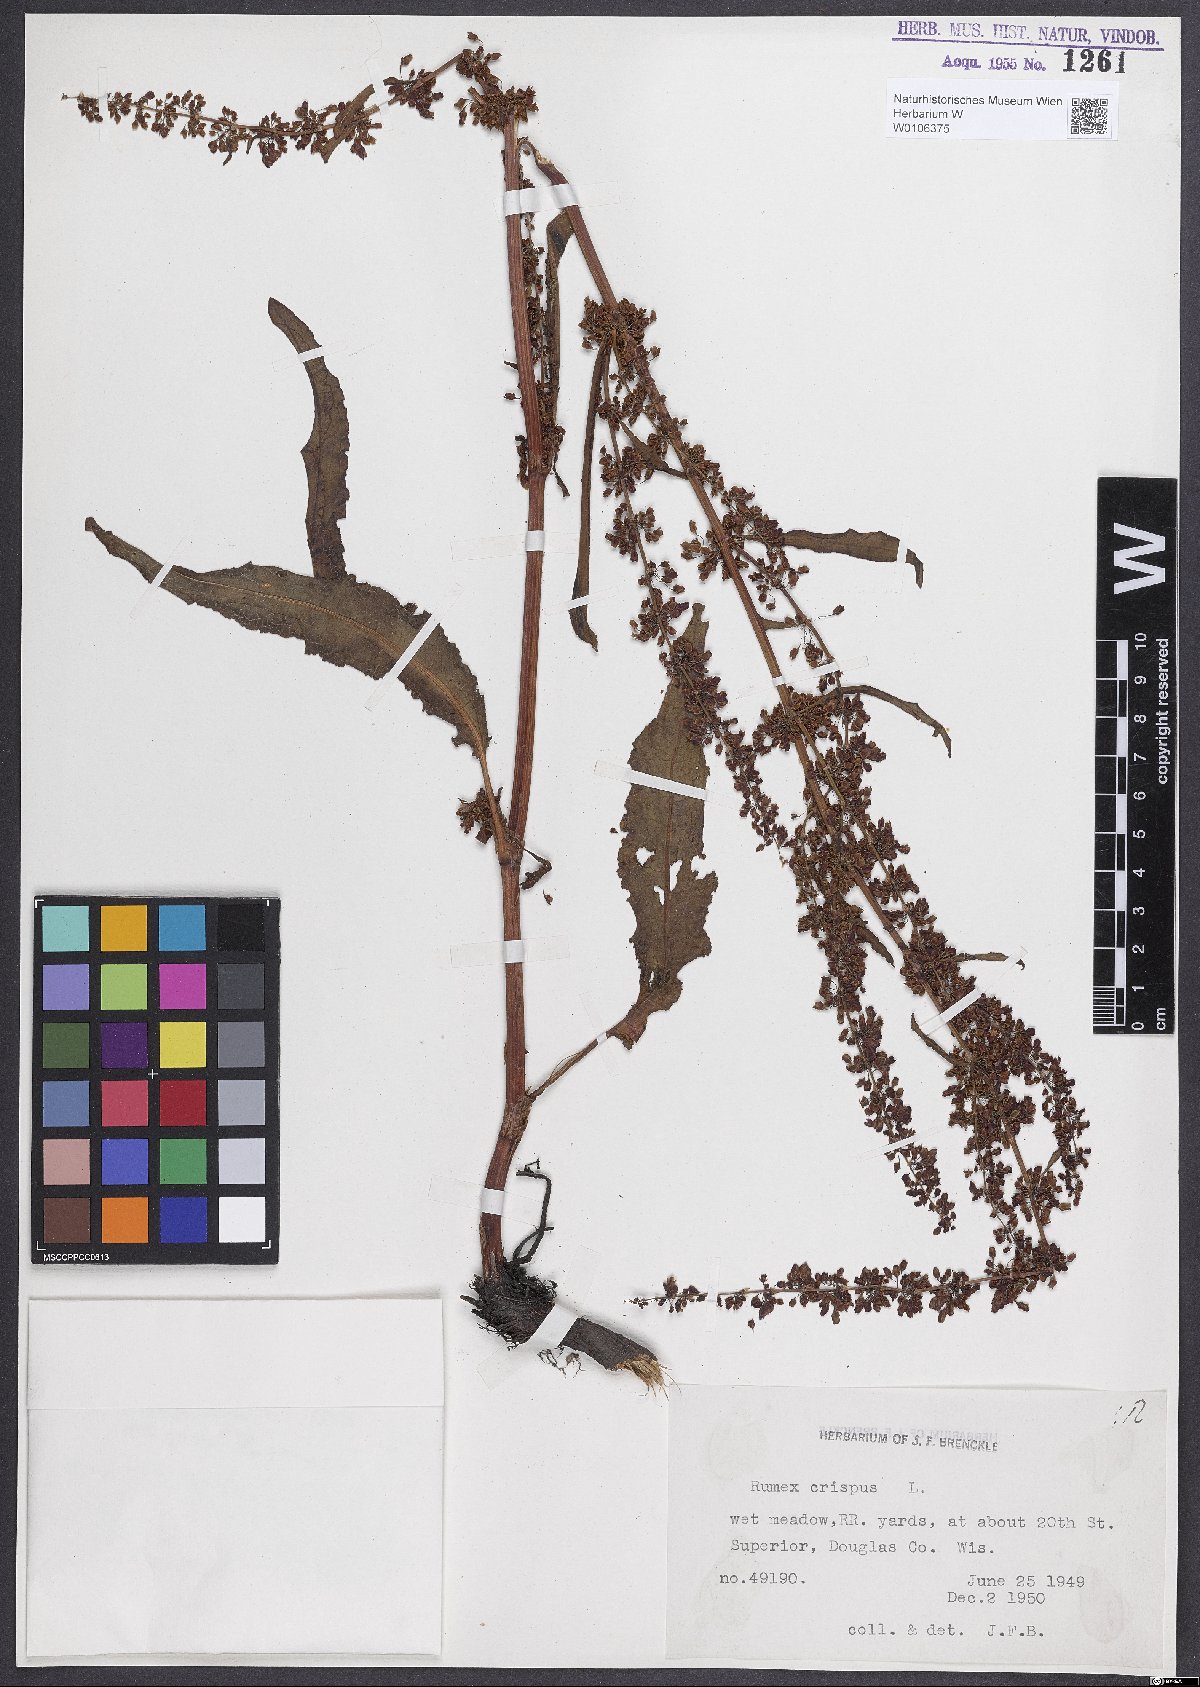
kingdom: Plantae
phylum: Tracheophyta
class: Magnoliopsida
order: Caryophyllales
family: Polygonaceae
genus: Rumex
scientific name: Rumex crispus
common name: Curled dock
